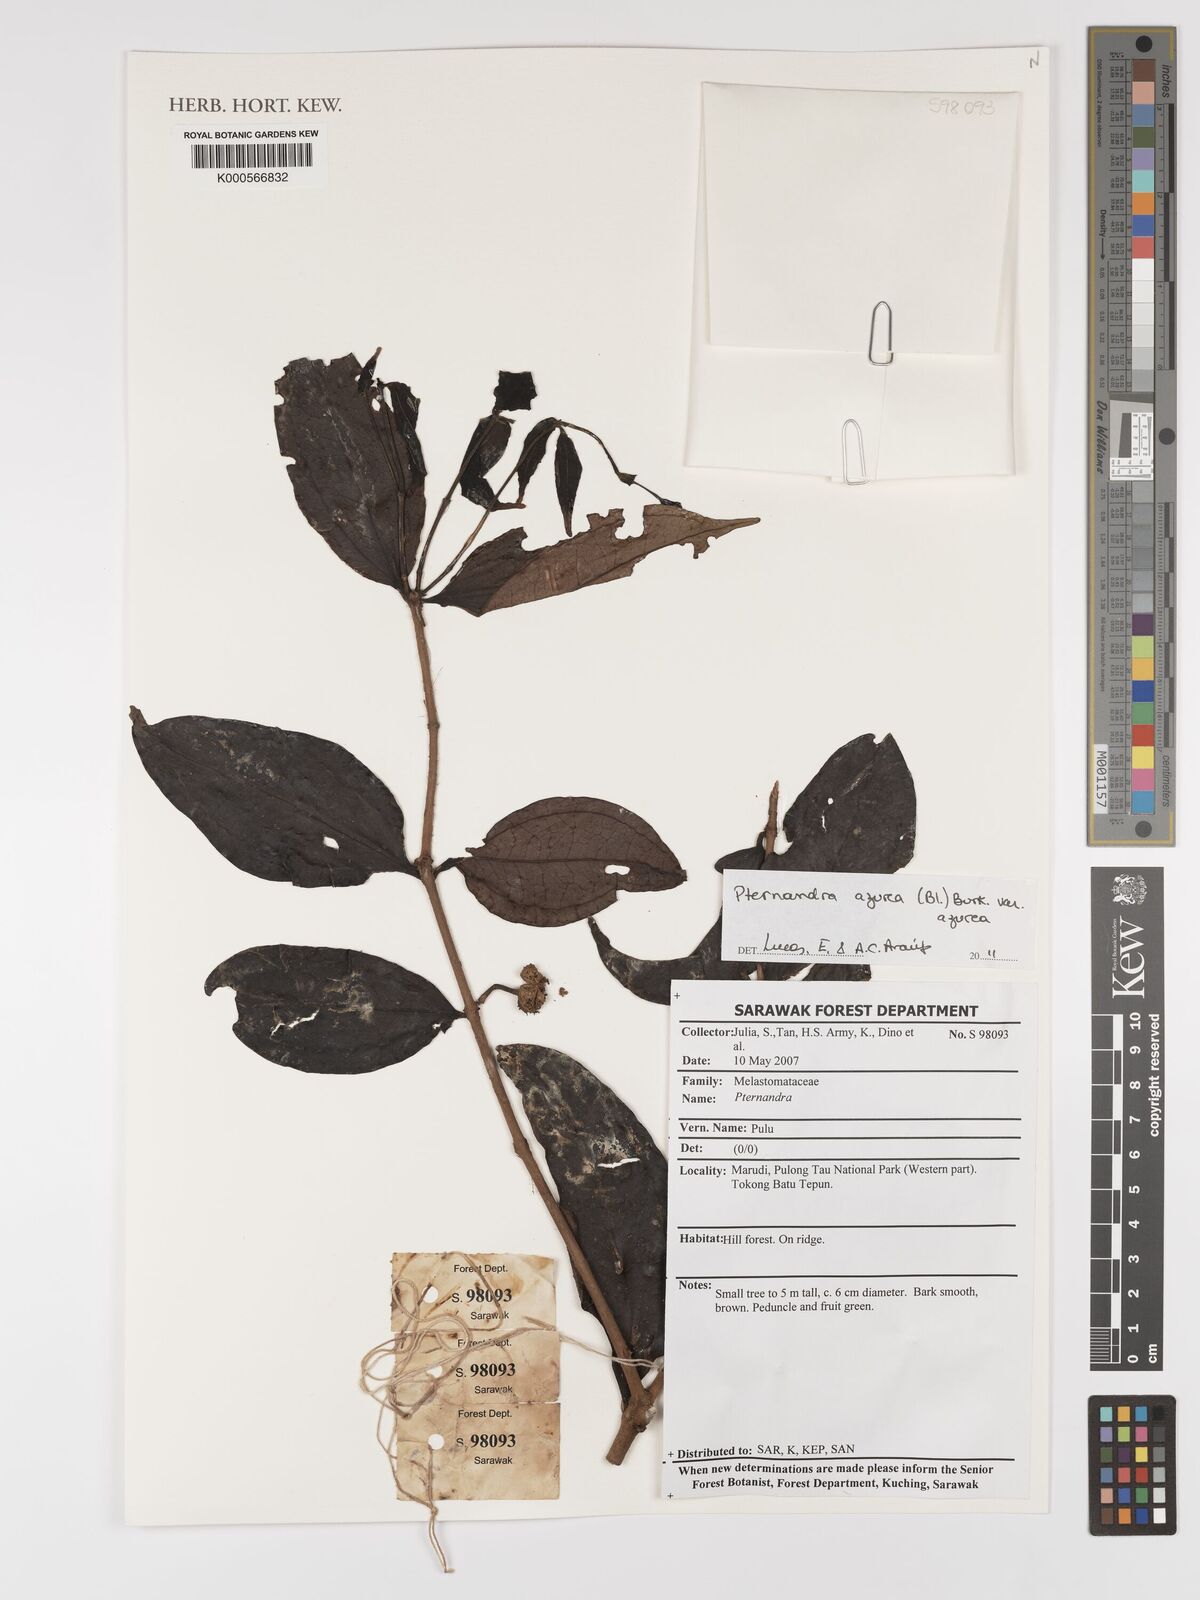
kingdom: Plantae
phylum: Tracheophyta
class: Magnoliopsida
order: Myrtales
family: Melastomataceae
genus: Pternandra
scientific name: Pternandra azurea
